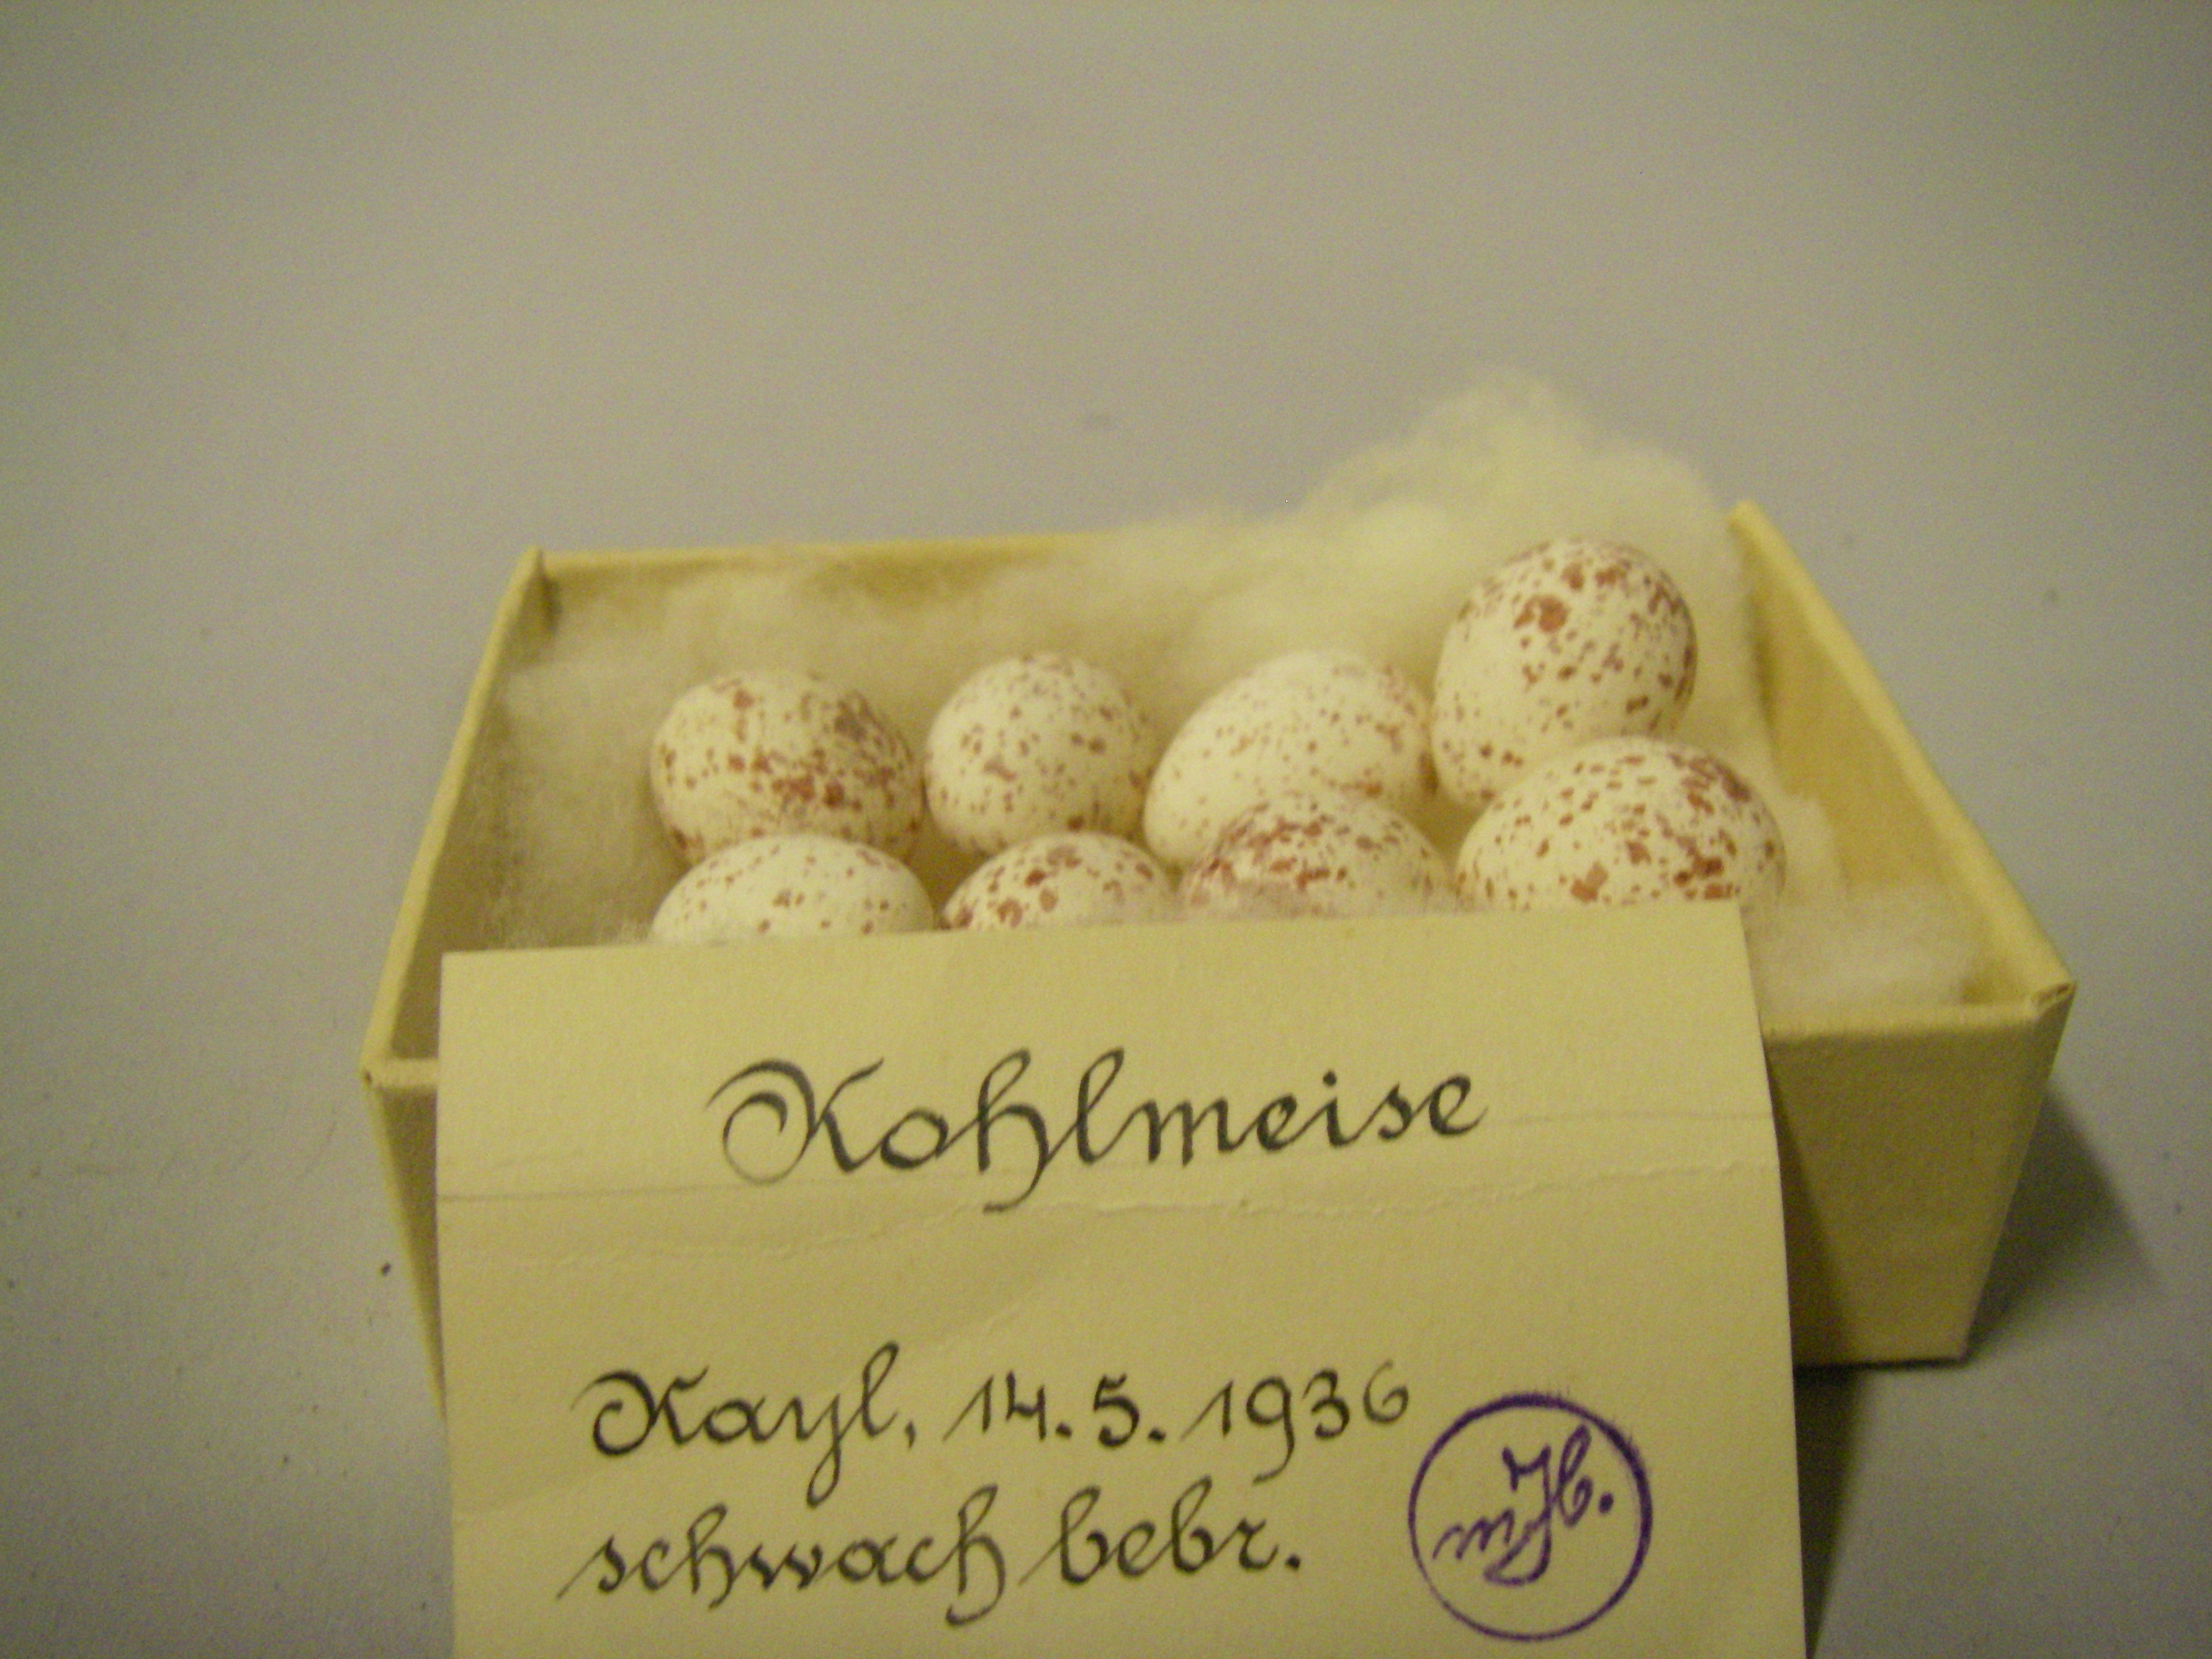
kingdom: Animalia
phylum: Chordata
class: Aves
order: Passeriformes
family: Paridae
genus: Parus
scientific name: Parus major
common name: Great tit
